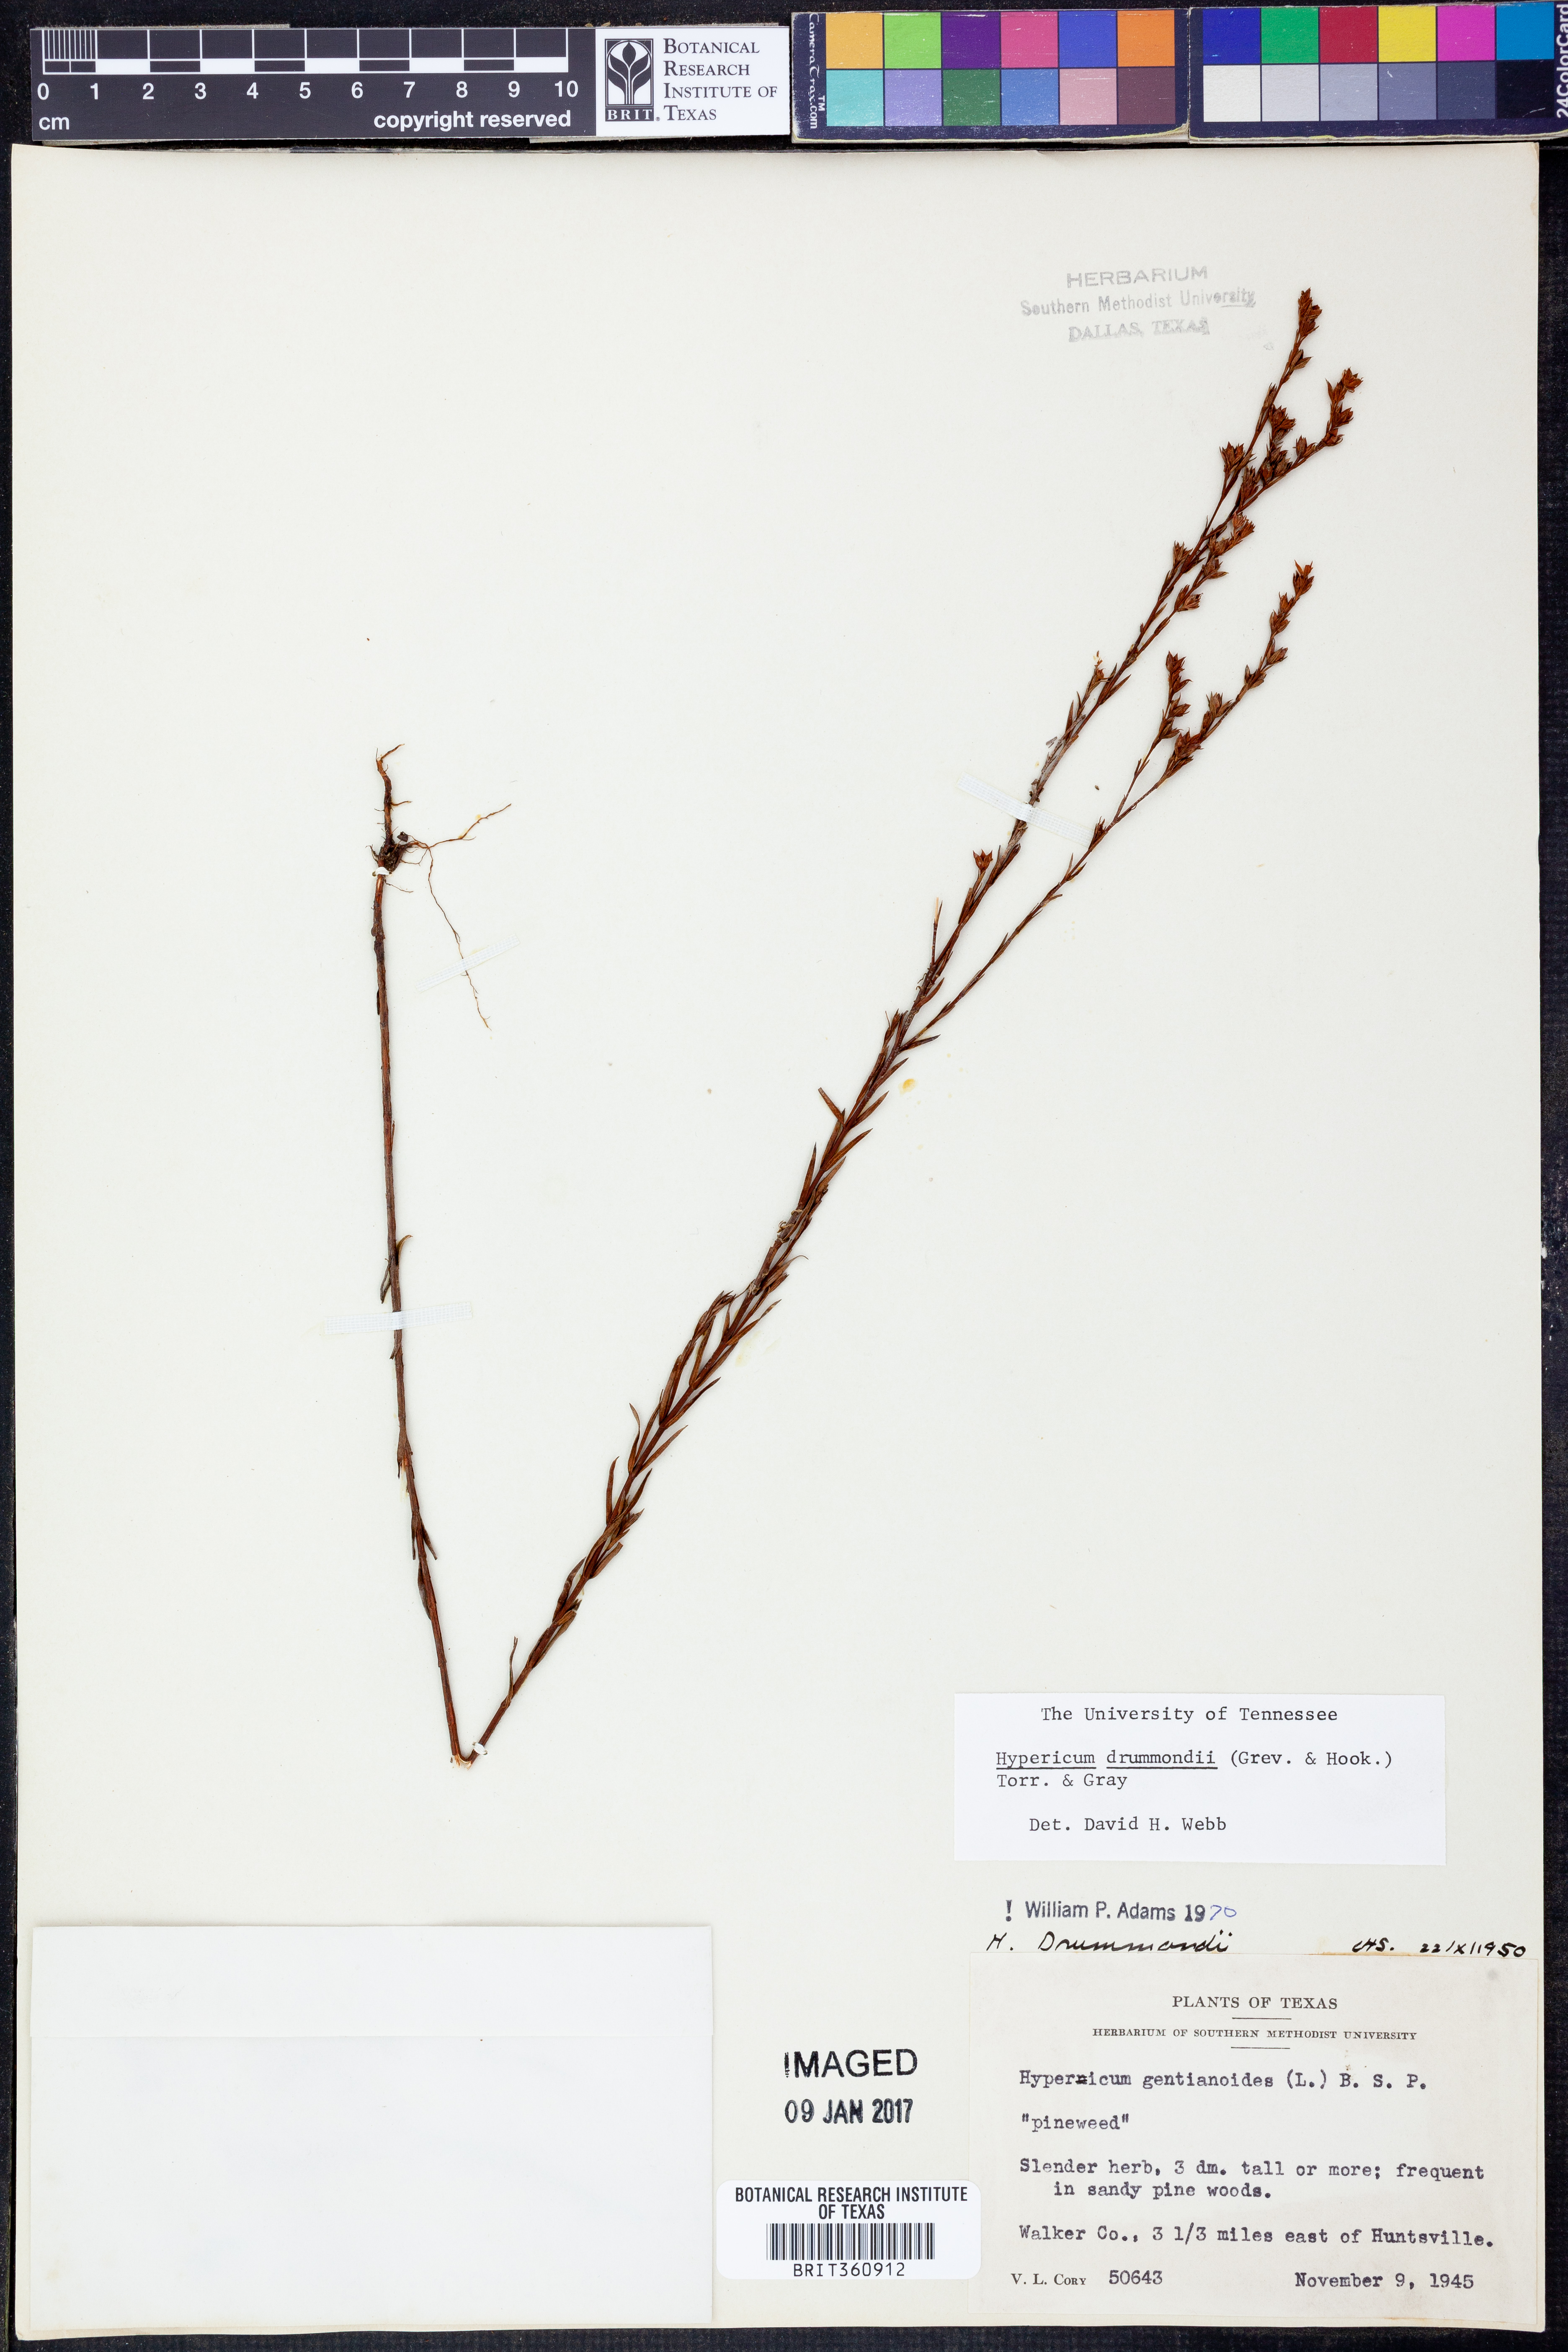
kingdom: Plantae
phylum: Tracheophyta
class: Magnoliopsida
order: Malpighiales
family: Hypericaceae
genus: Hypericum
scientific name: Hypericum drummondii
